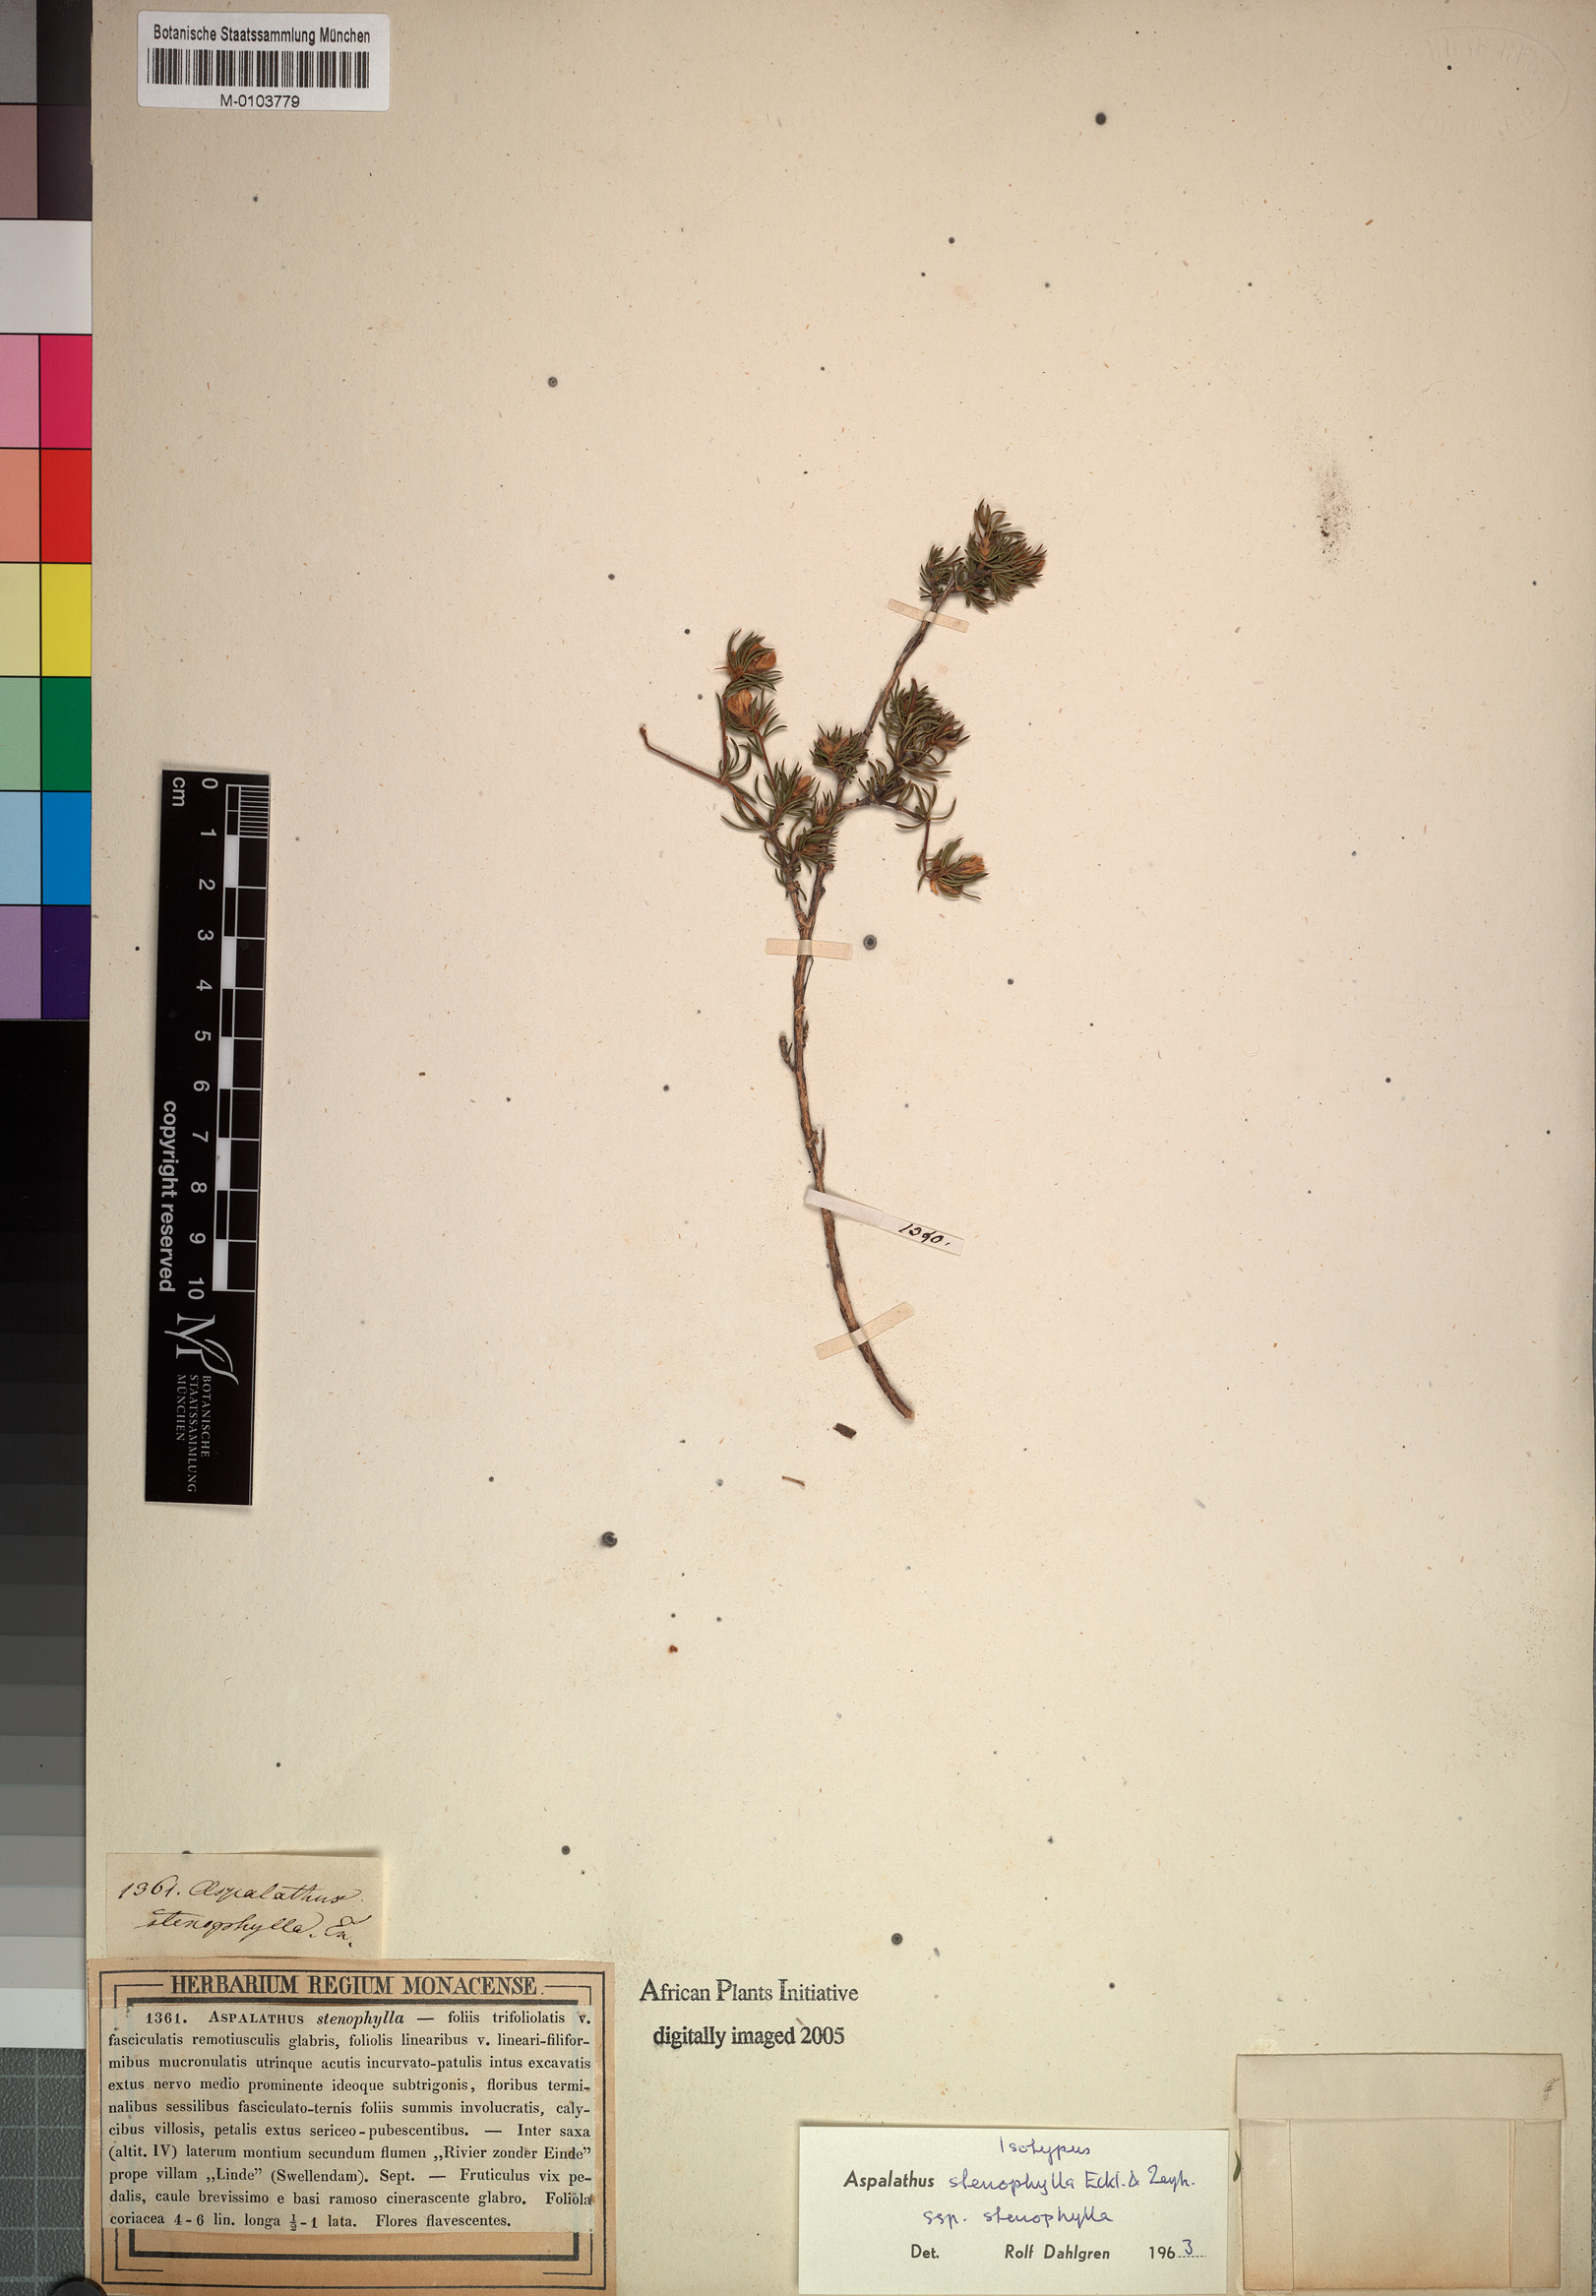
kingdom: Plantae
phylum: Tracheophyta
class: Magnoliopsida
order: Fabales
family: Fabaceae
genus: Aspalathus
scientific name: Aspalathus stenophylla
